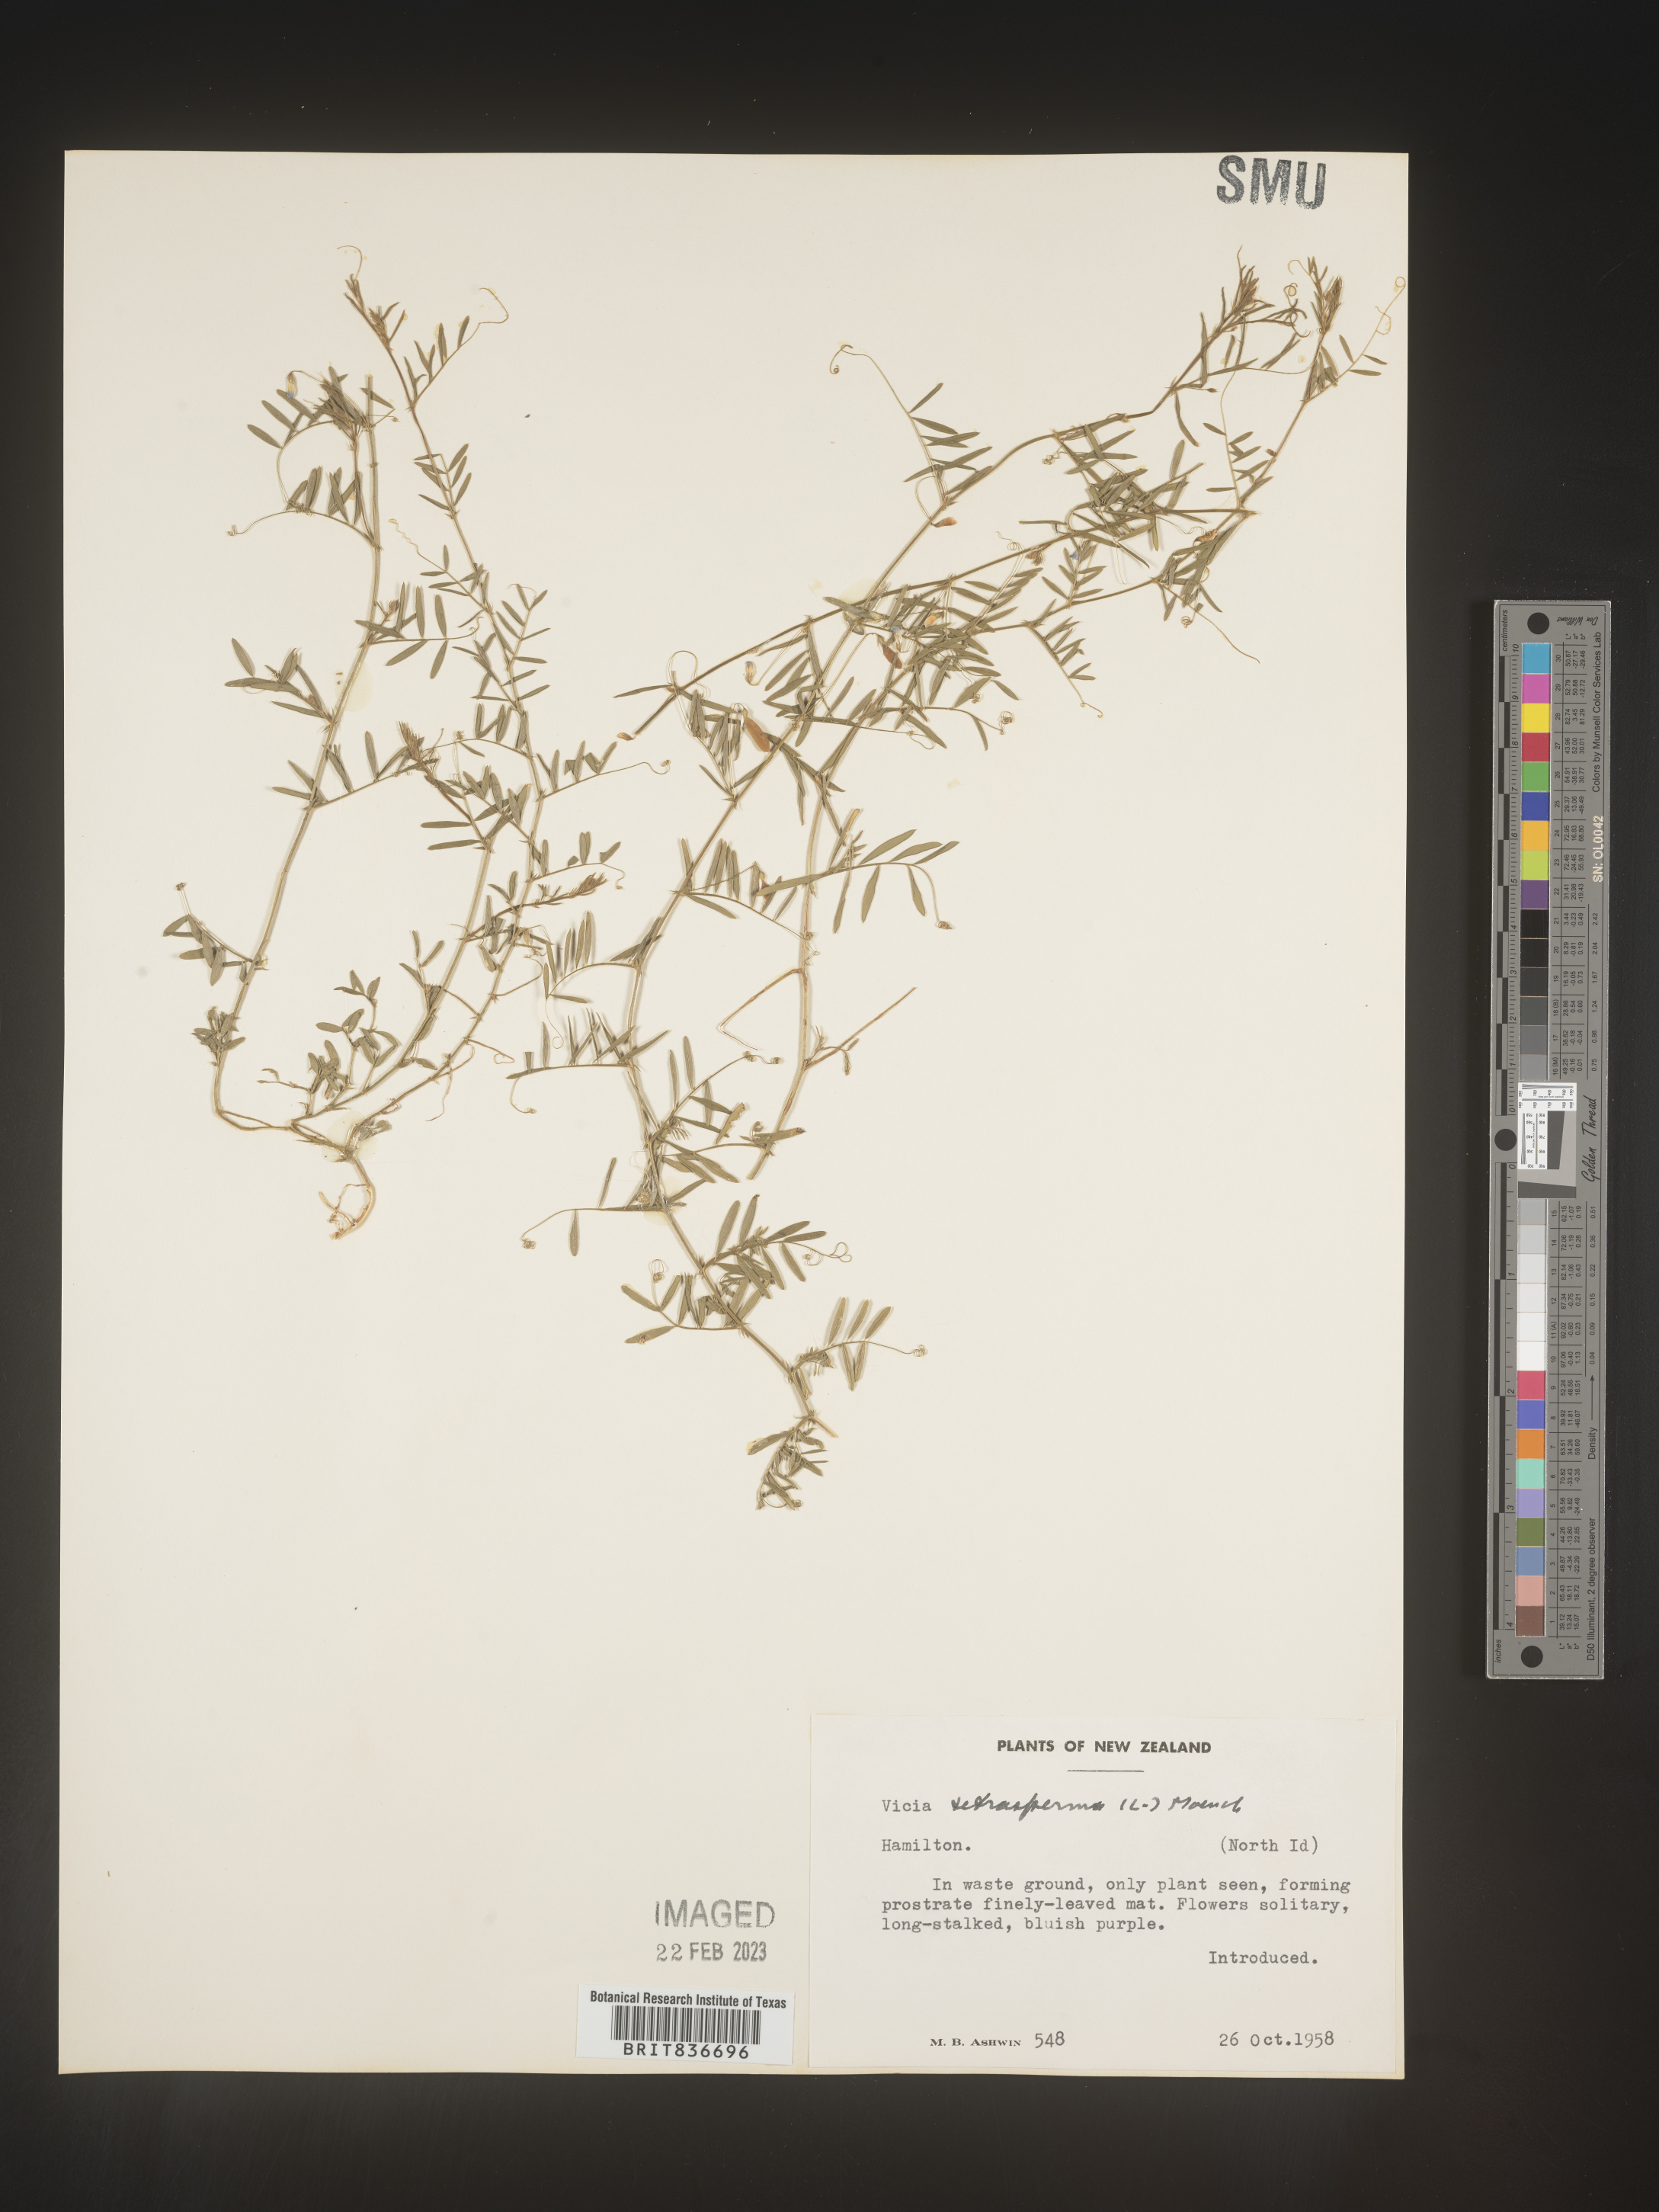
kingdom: Plantae
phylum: Tracheophyta
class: Magnoliopsida
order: Fabales
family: Fabaceae
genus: Vicia
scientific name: Vicia
